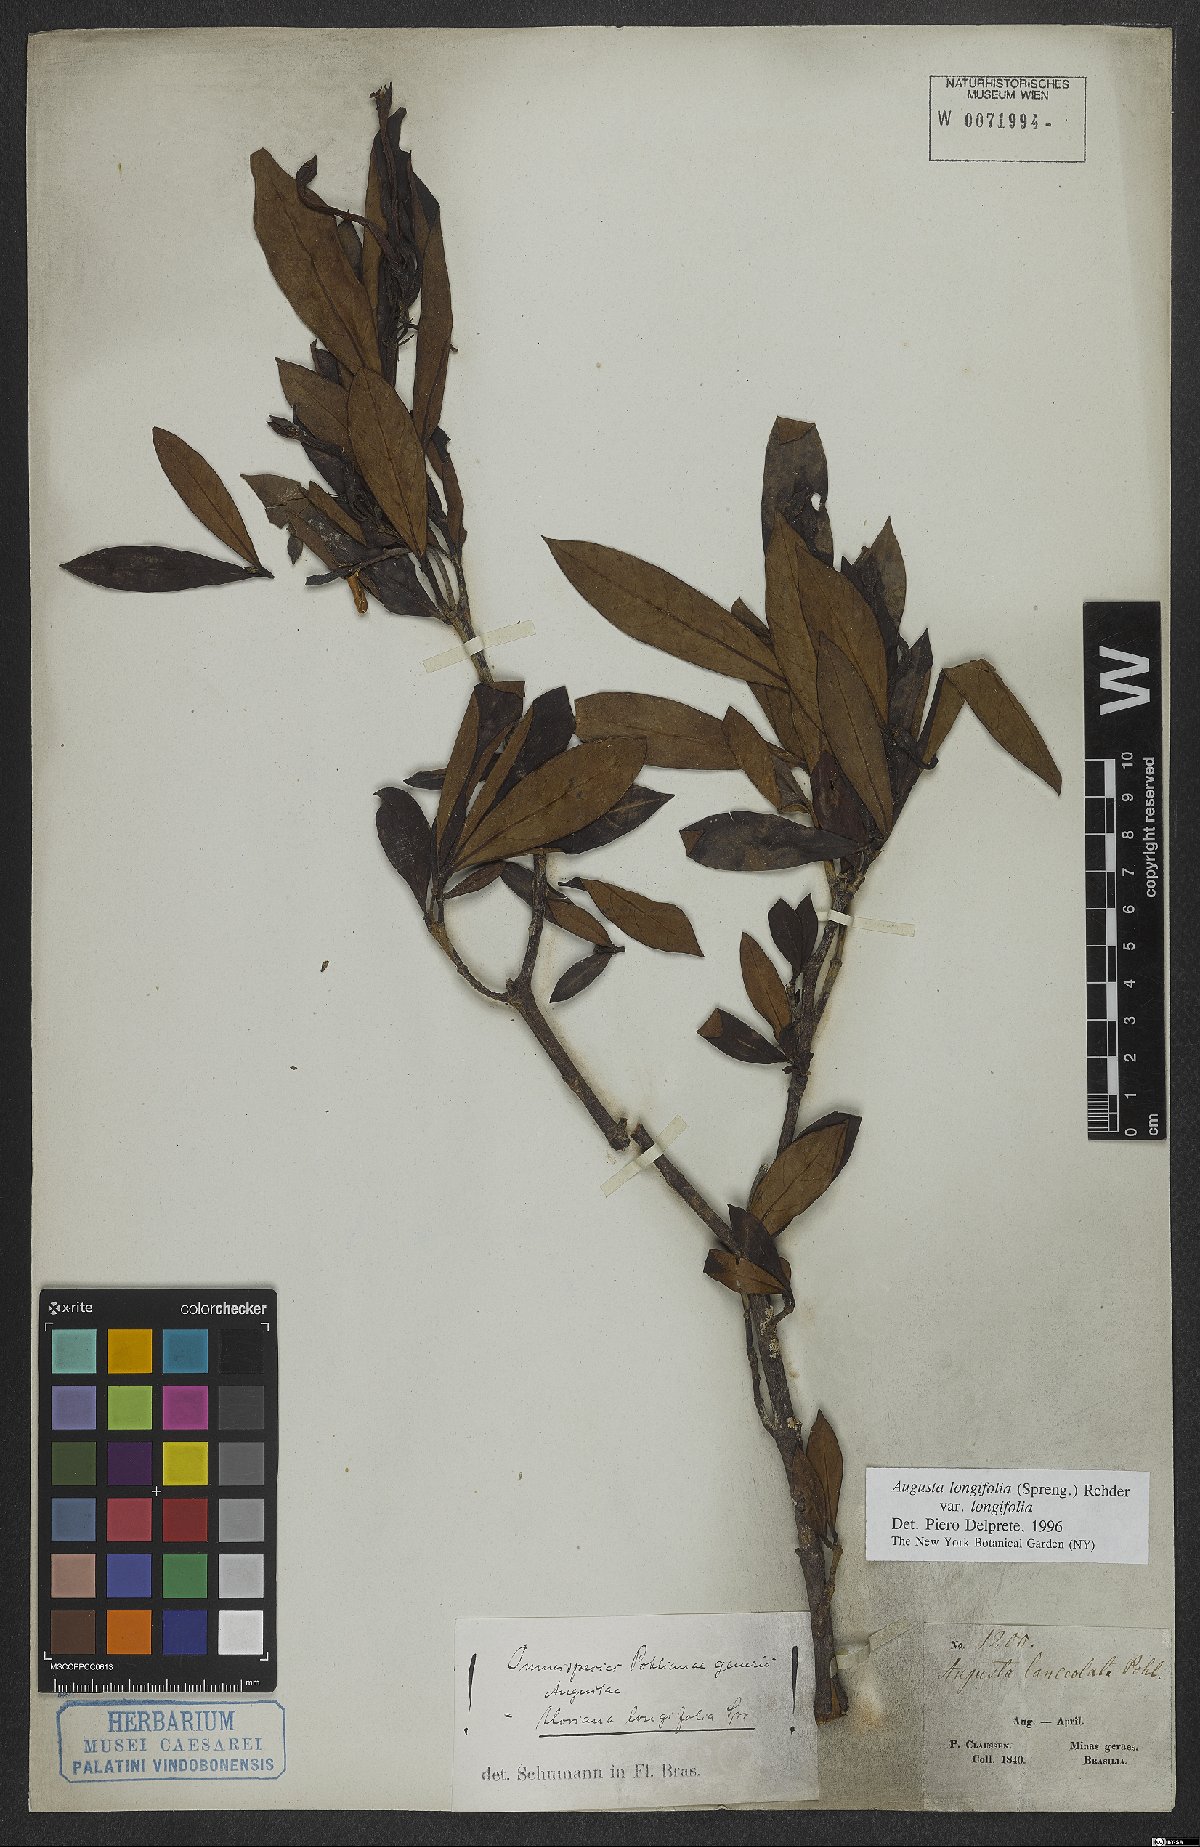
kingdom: Plantae
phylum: Tracheophyta
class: Magnoliopsida
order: Gentianales
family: Rubiaceae
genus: Augusta
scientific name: Augusta longifolia
